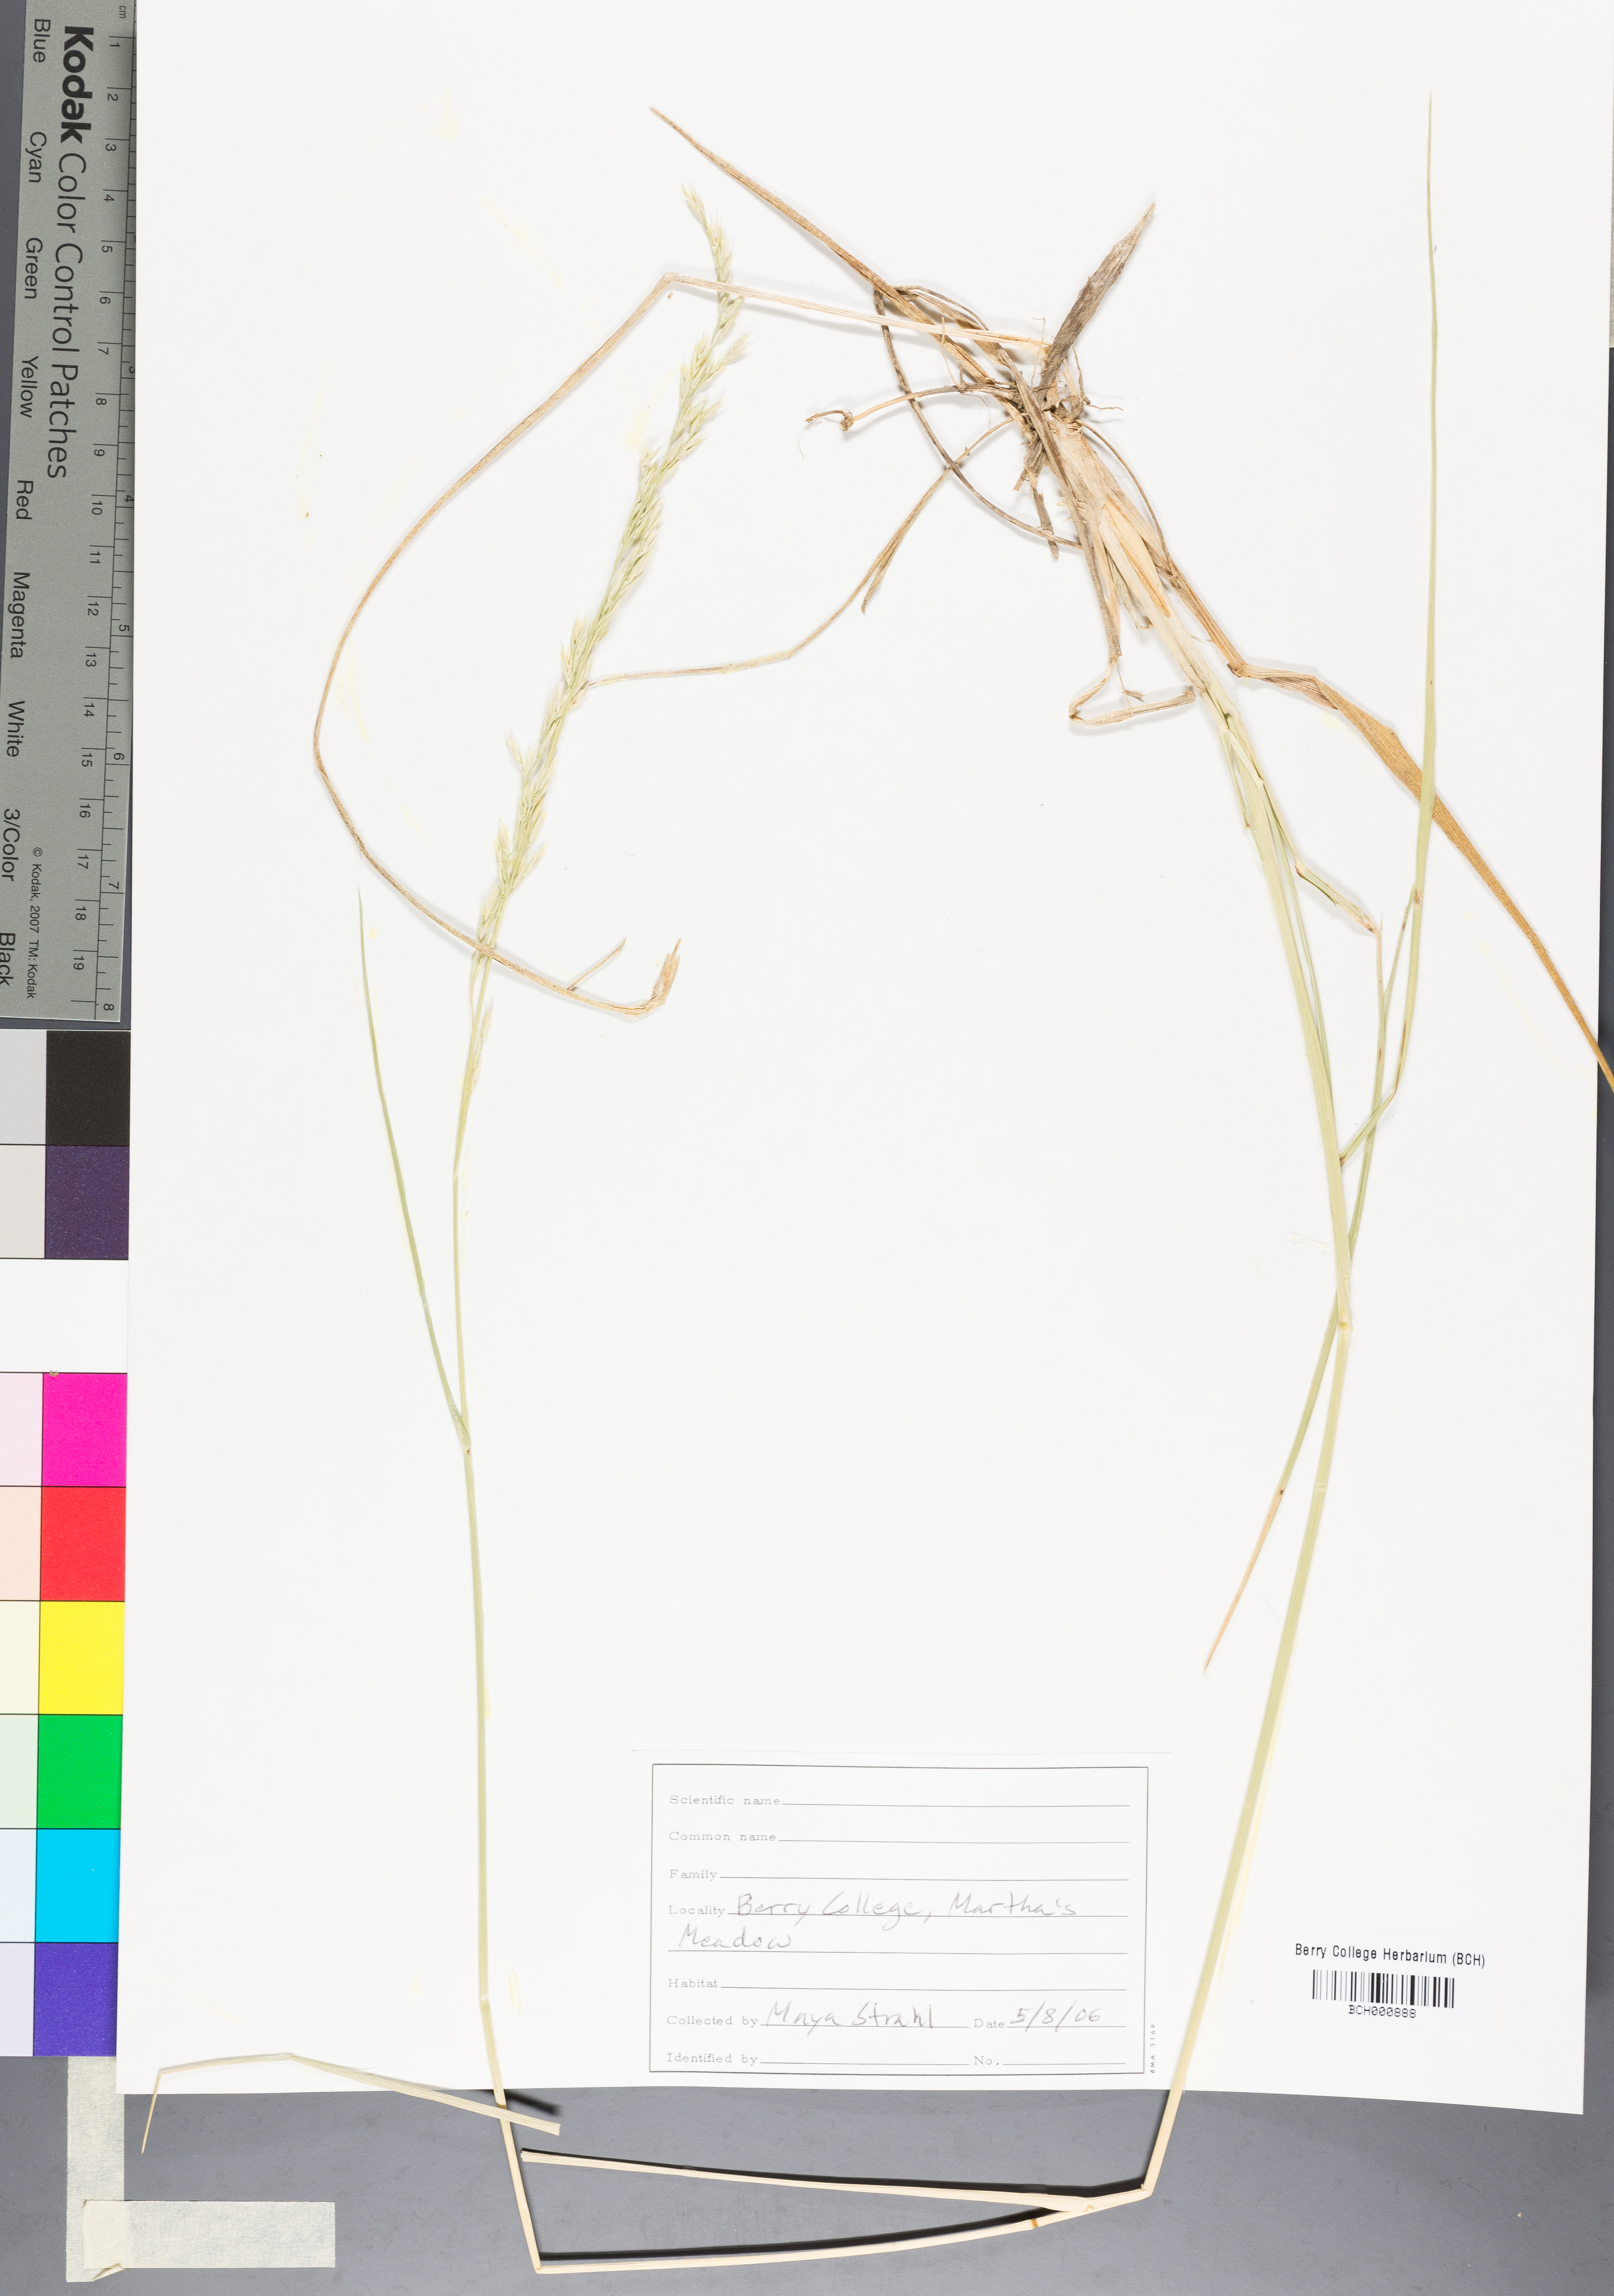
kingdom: Plantae
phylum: Tracheophyta
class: Magnoliopsida
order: Lamiales
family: Acanthaceae
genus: Adhatoda
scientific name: Adhatoda
